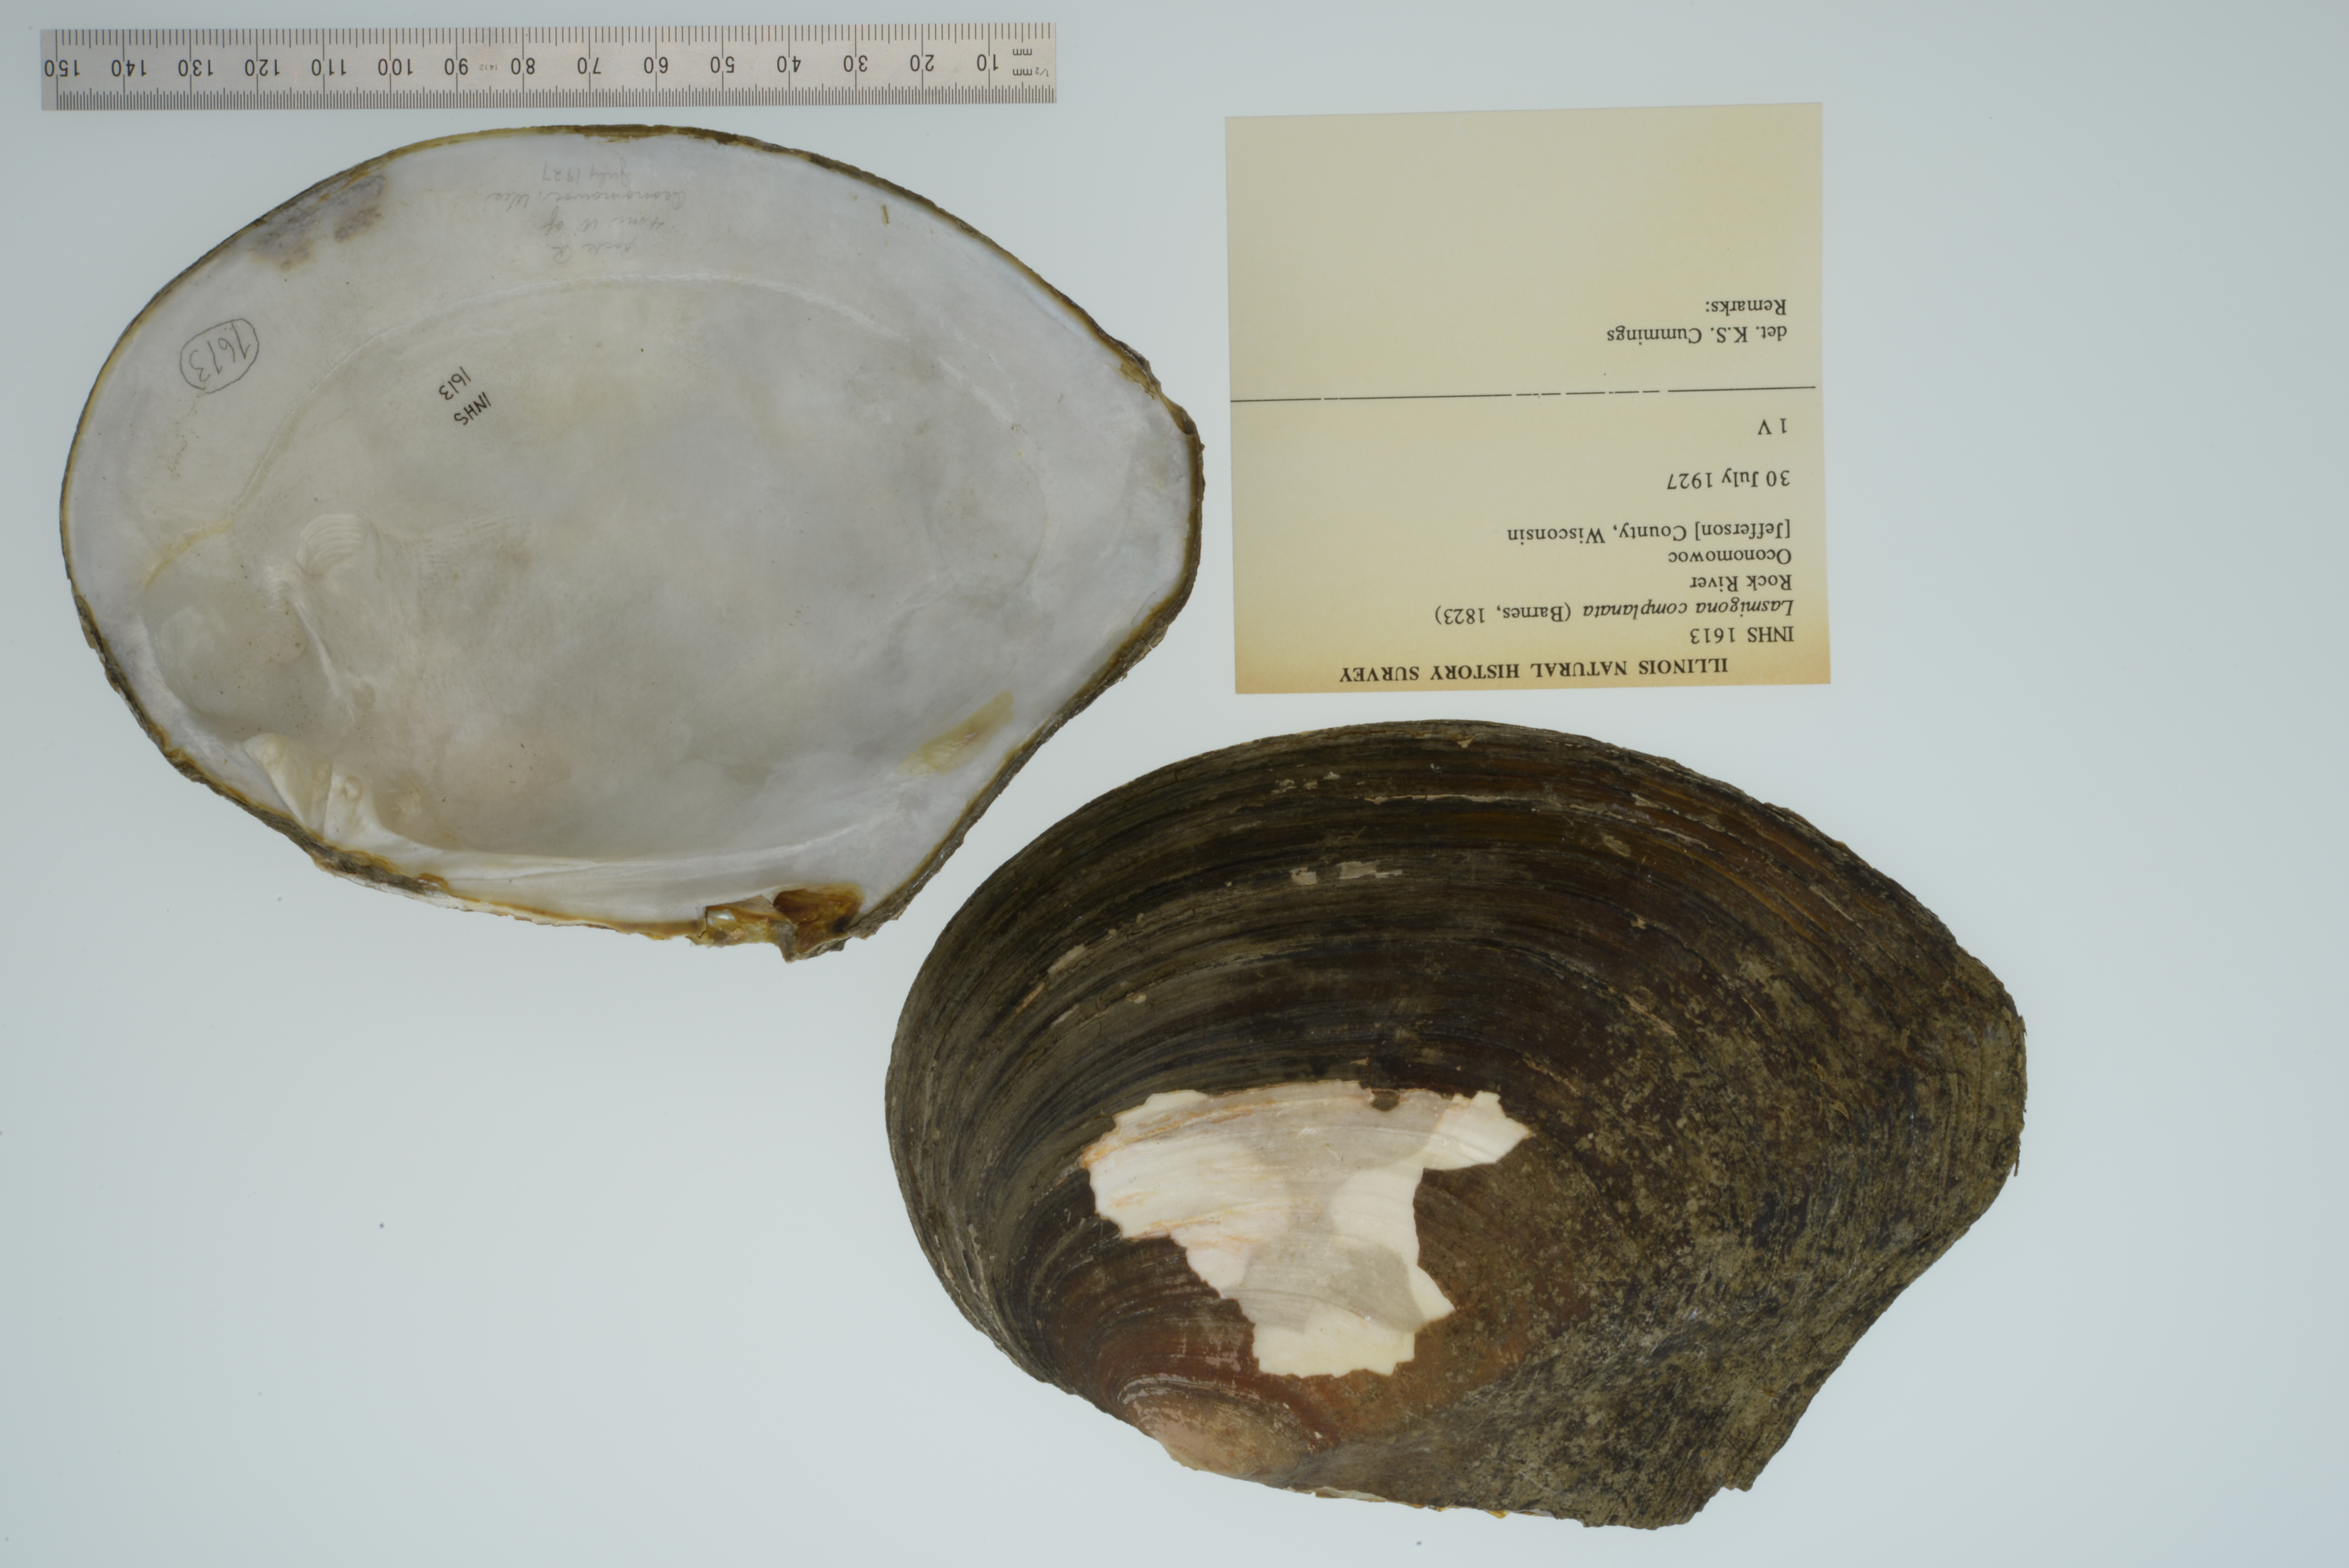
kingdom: Animalia
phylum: Mollusca
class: Bivalvia
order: Unionida
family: Unionidae
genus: Lasmigona
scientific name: Lasmigona complanata
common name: White heelsplitter
